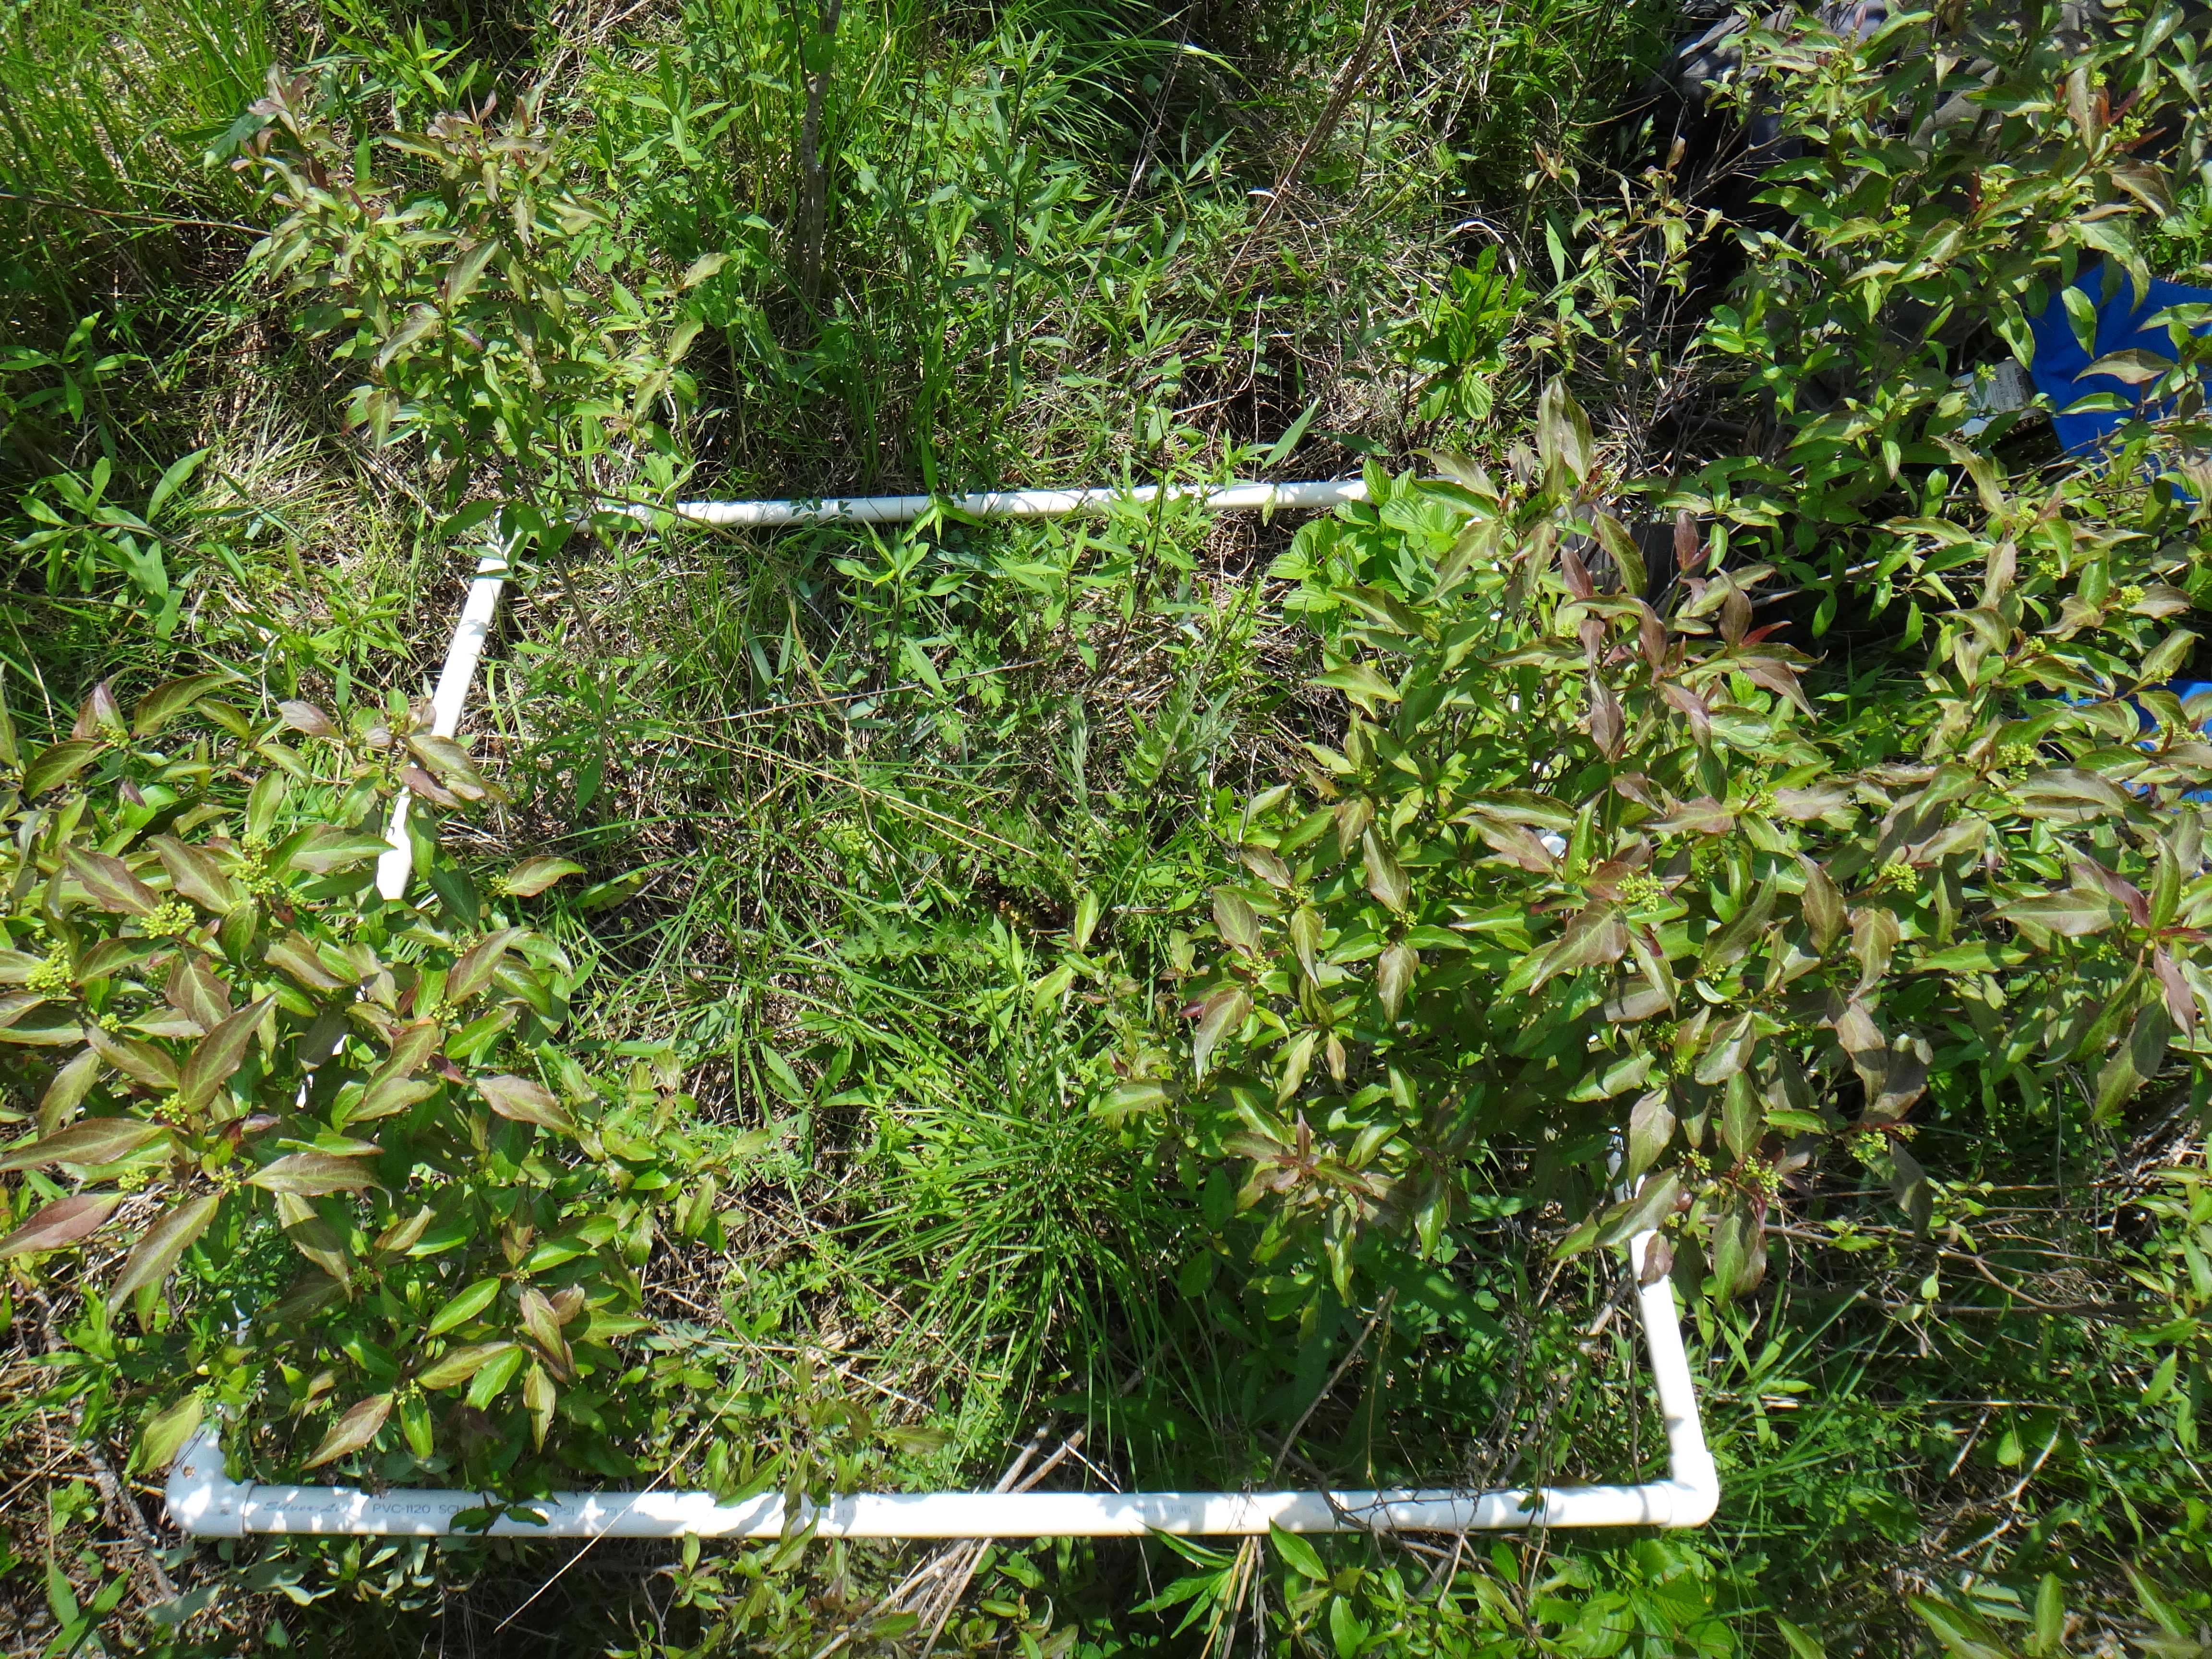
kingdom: Plantae
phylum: Tracheophyta
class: Magnoliopsida
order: Asterales
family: Asteraceae
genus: Cirsium
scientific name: Cirsium muticum
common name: Dunce-nettle
